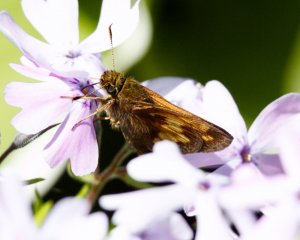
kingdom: Animalia
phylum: Arthropoda
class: Insecta
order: Lepidoptera
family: Hesperiidae
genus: Lon
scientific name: Lon hobomok
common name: Hobomok Skipper
